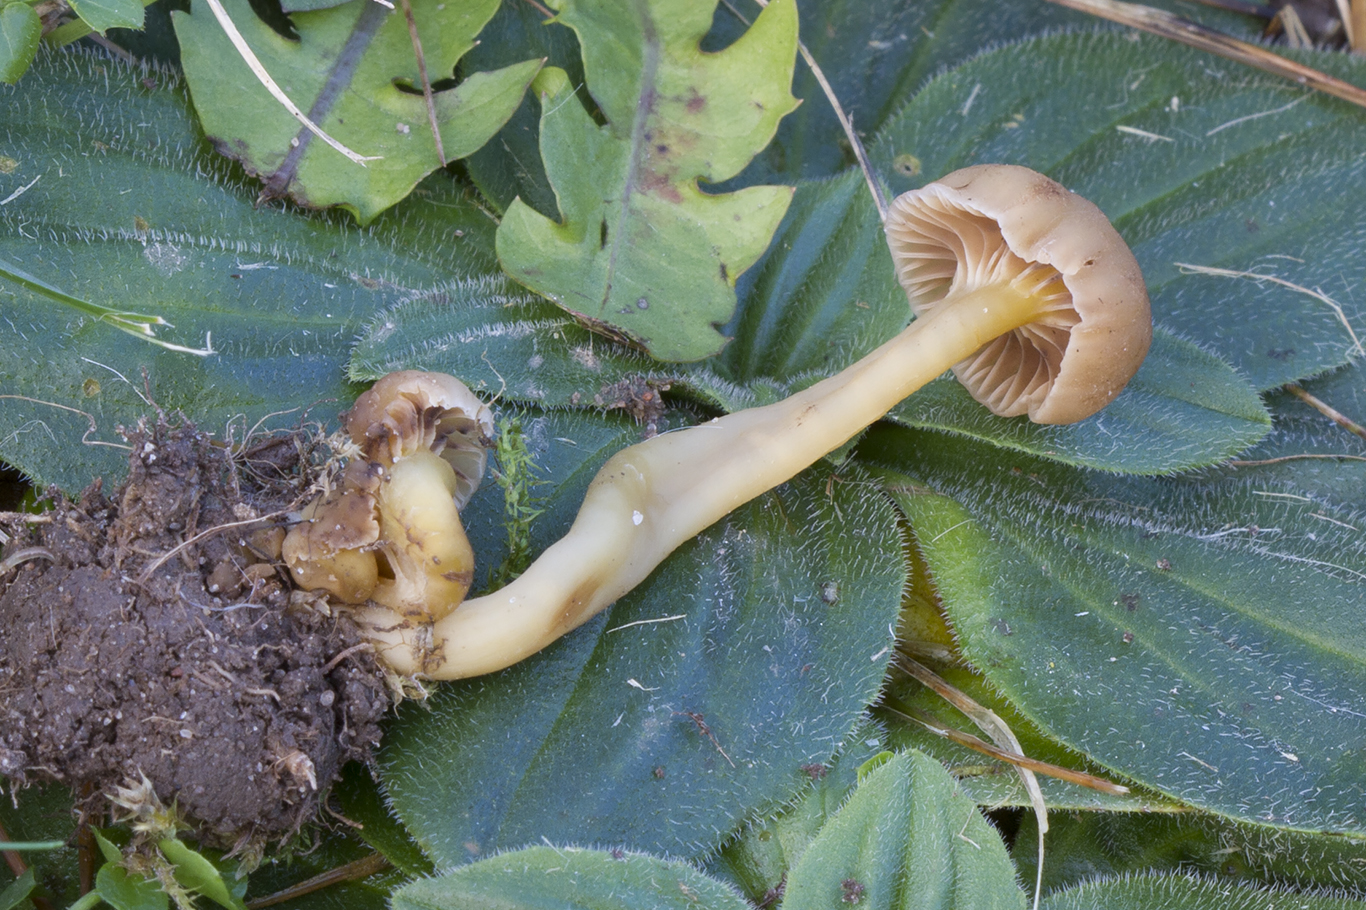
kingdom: Fungi
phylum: Basidiomycota
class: Agaricomycetes
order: Agaricales
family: Clavariaceae
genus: Hodophilus
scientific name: Hodophilus phaeoxanthus
